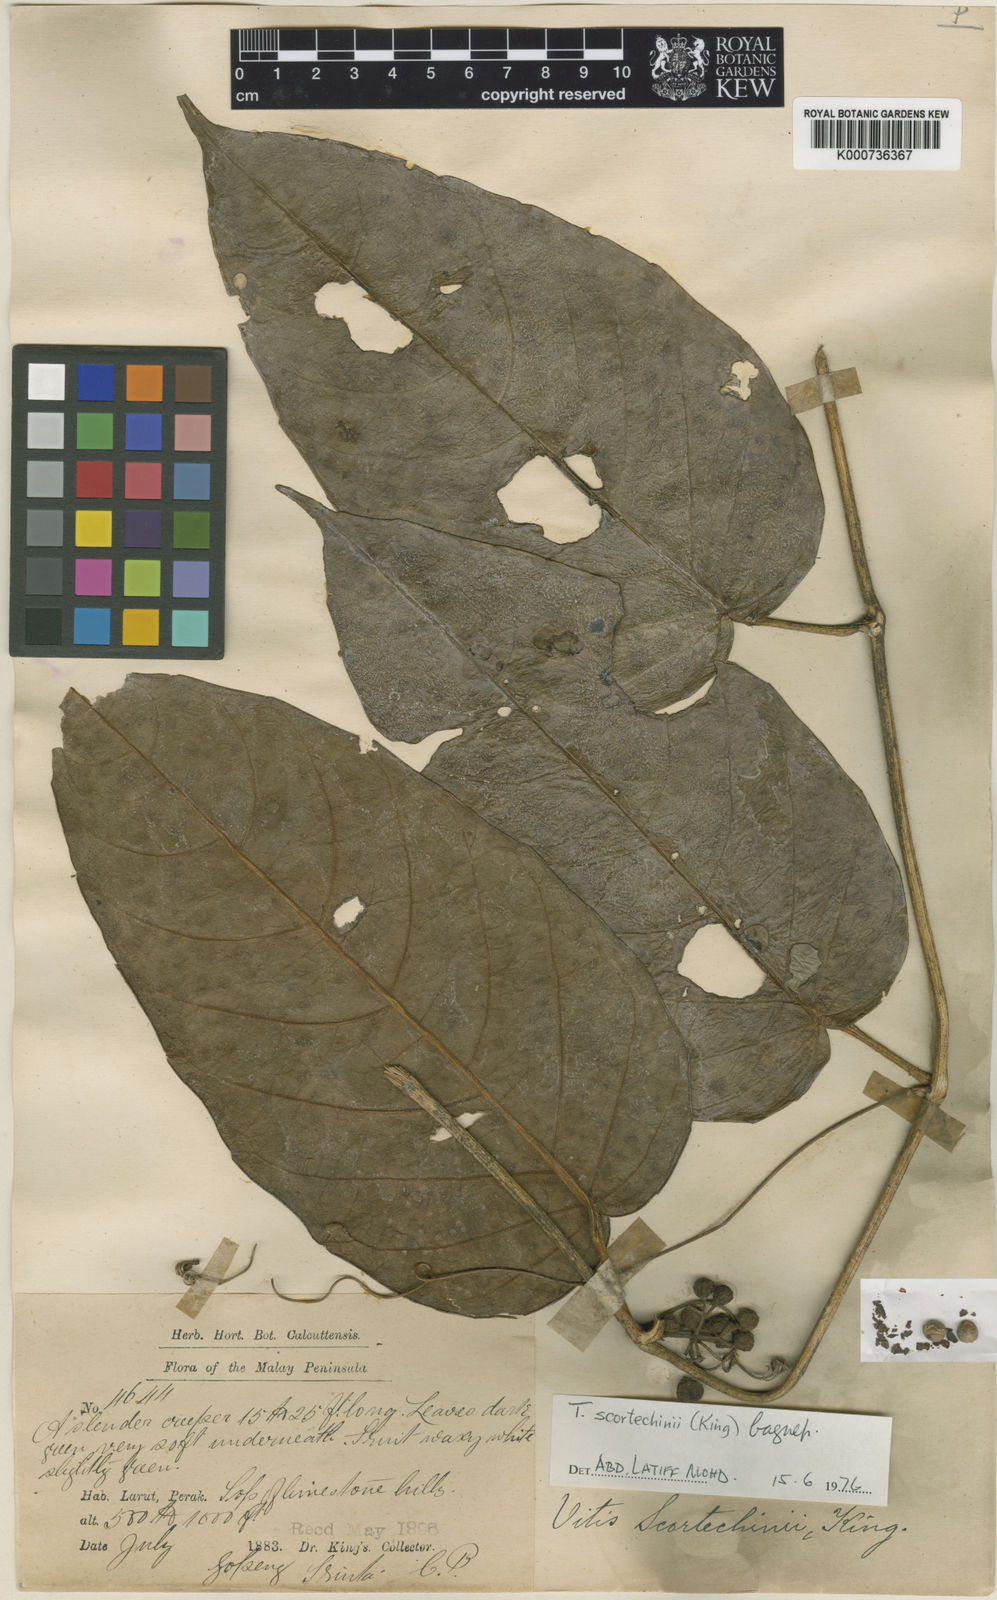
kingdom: Plantae
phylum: Tracheophyta
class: Magnoliopsida
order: Vitales
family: Vitaceae
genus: Tetrastigma
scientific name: Tetrastigma scortechinii
